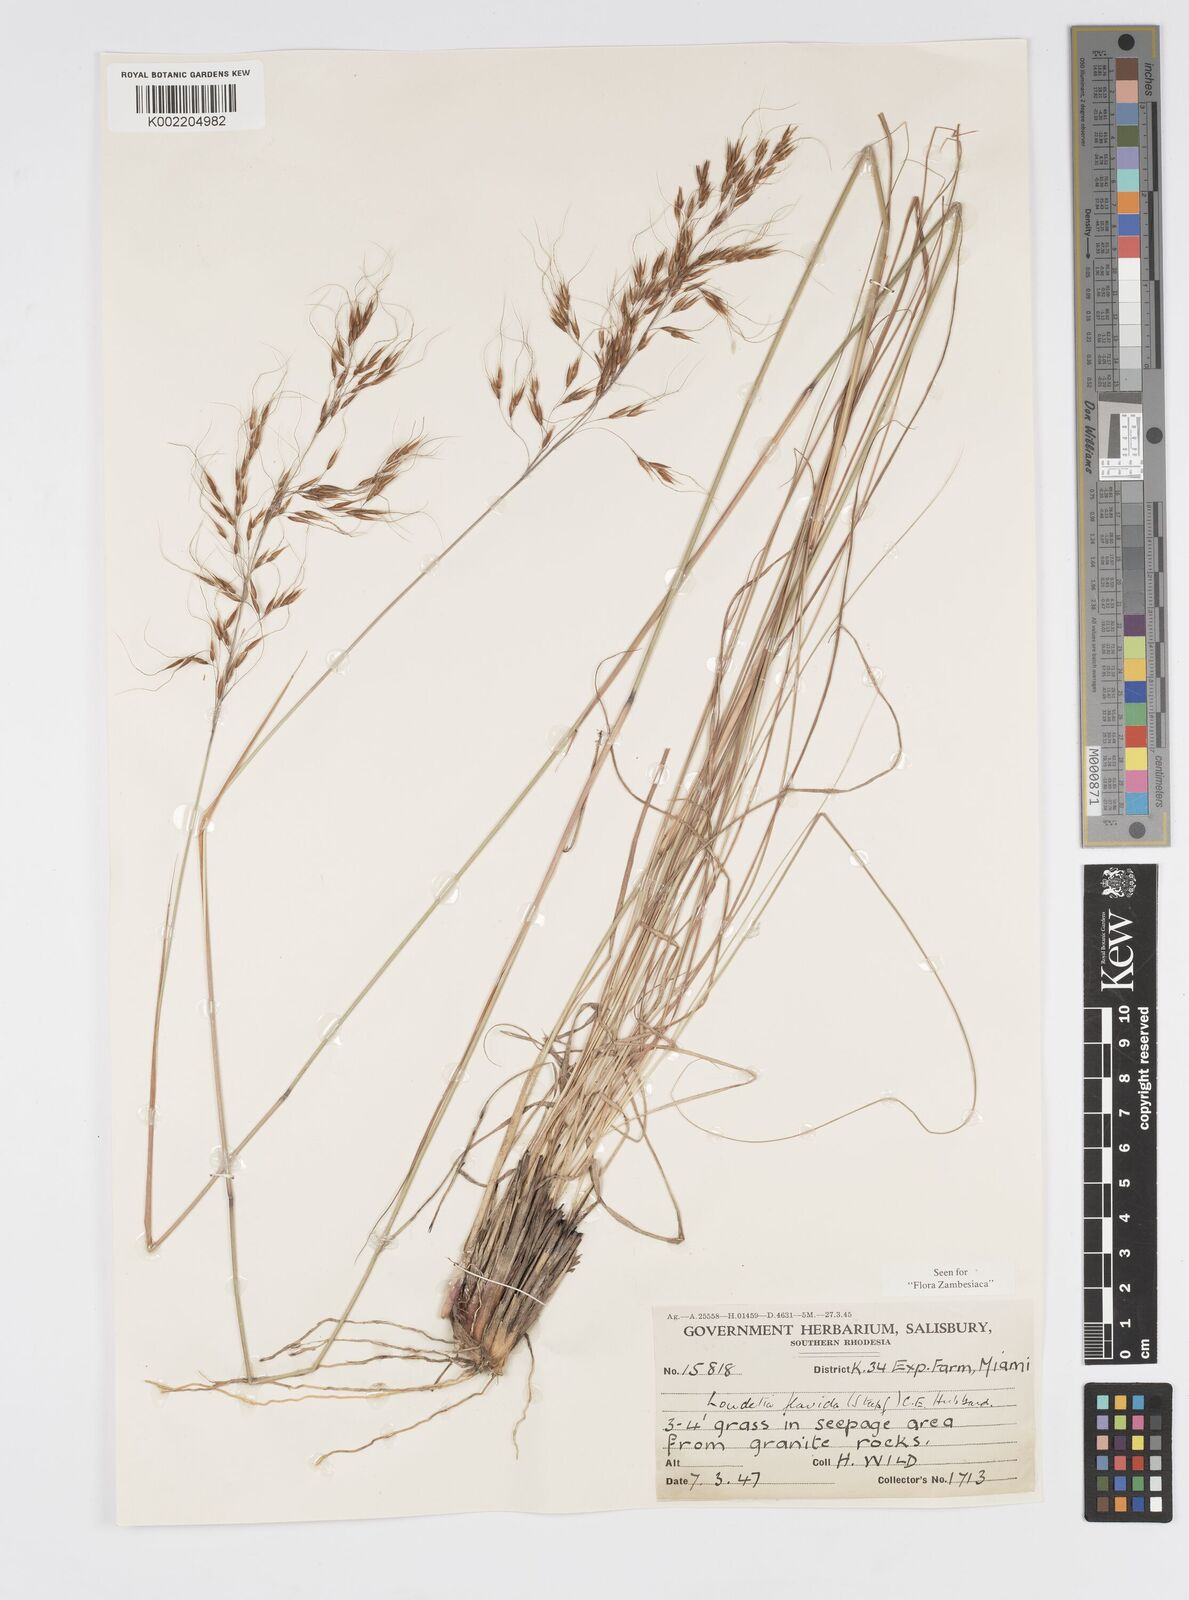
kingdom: Plantae
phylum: Tracheophyta
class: Liliopsida
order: Poales
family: Poaceae
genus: Loudetia
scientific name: Loudetia flavida
